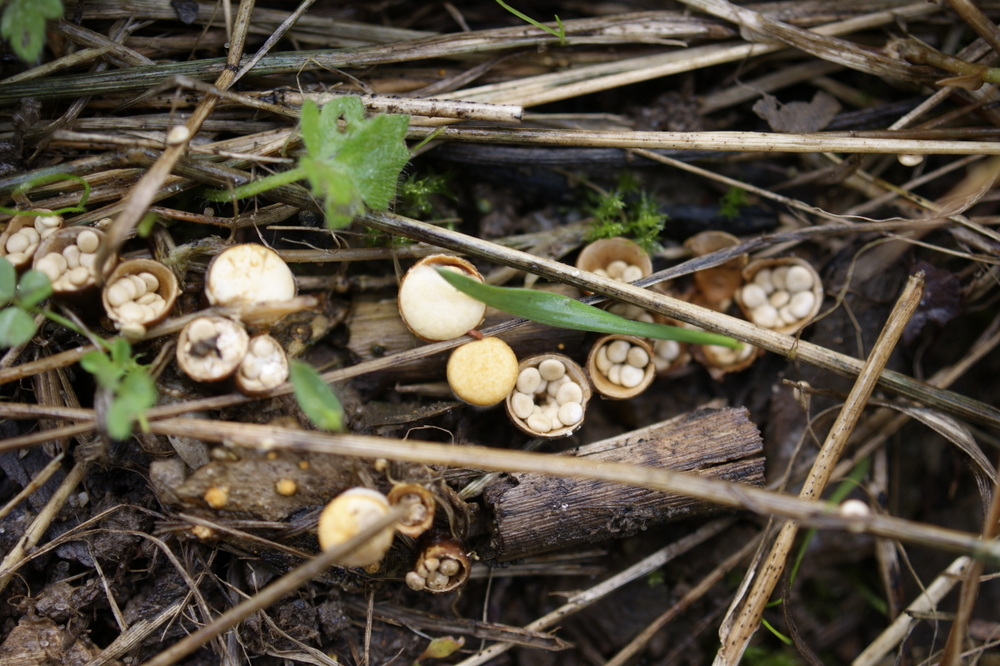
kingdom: Fungi
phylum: Basidiomycota
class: Agaricomycetes
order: Agaricales
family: Nidulariaceae
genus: Crucibulum
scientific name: Crucibulum crucibuliforme
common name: krukkesvamp
